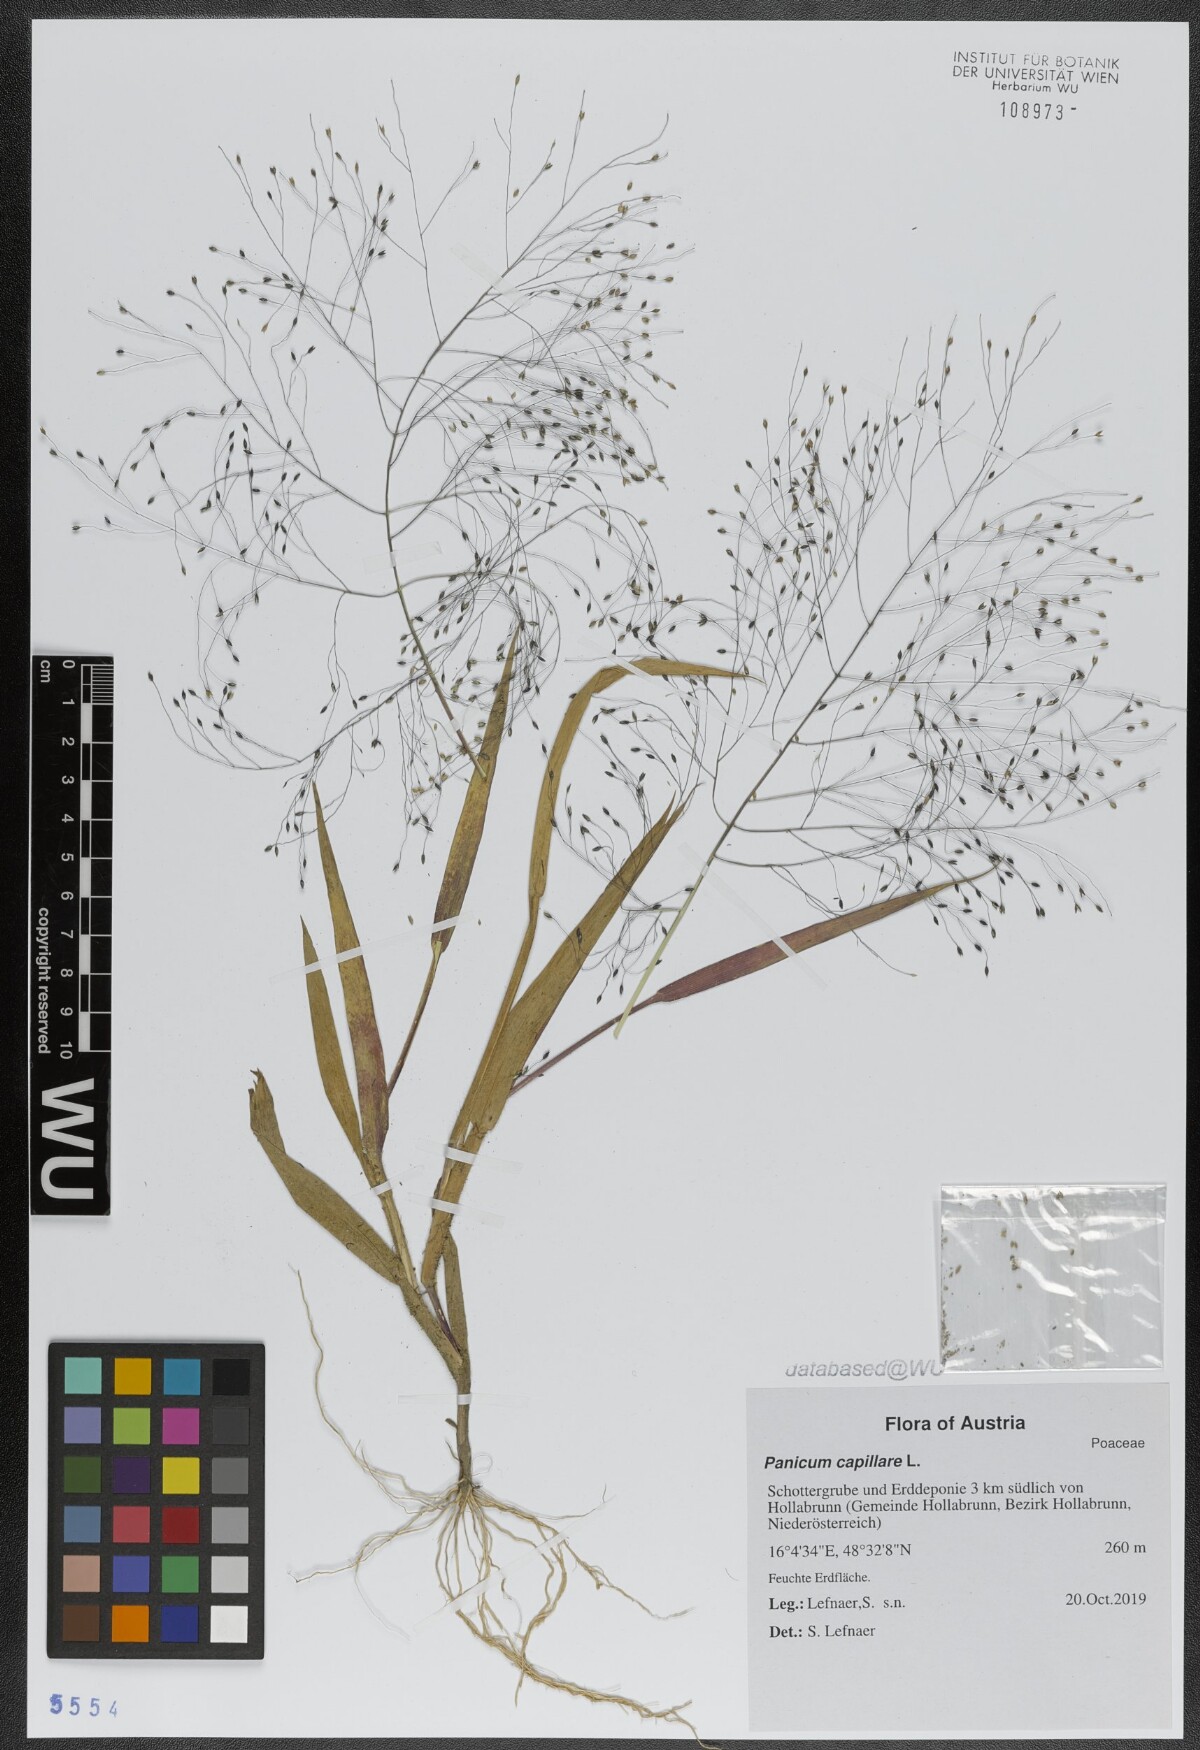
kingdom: Plantae
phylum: Tracheophyta
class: Liliopsida
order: Poales
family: Poaceae
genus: Panicum
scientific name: Panicum capillare
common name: Witch-grass
